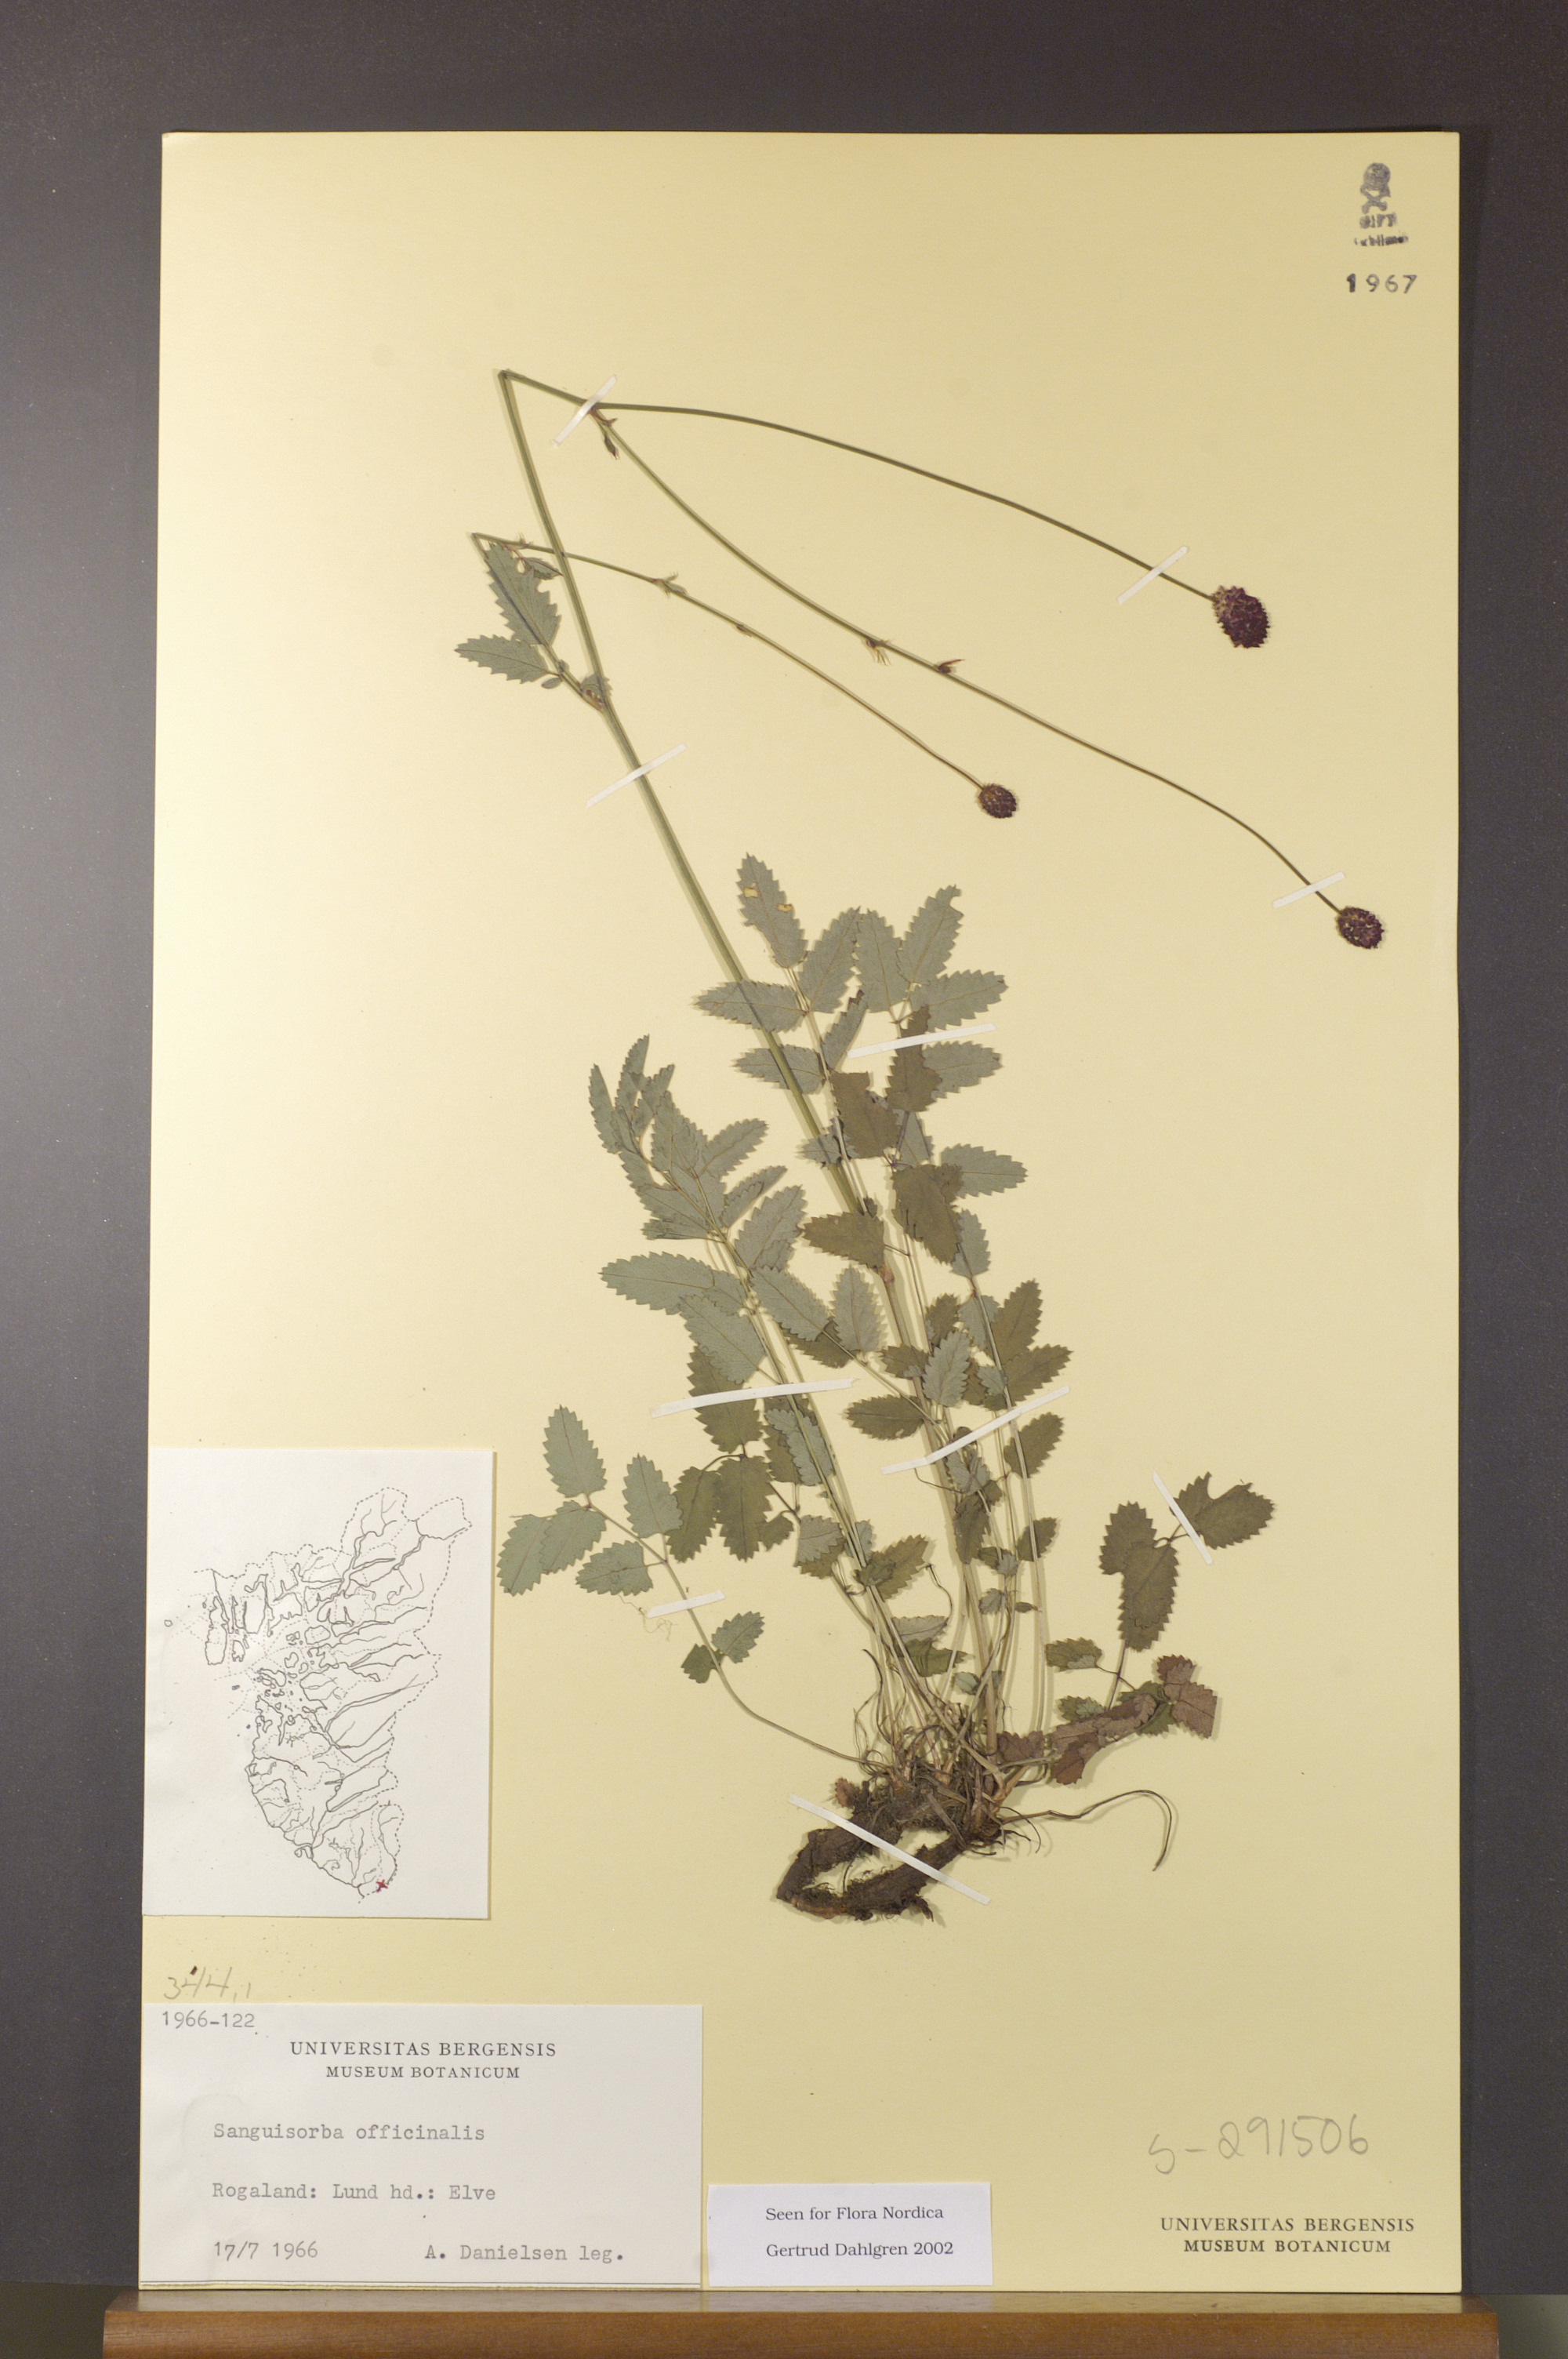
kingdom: Plantae
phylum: Tracheophyta
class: Magnoliopsida
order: Rosales
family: Rosaceae
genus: Sanguisorba
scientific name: Sanguisorba officinalis
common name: Great burnet
